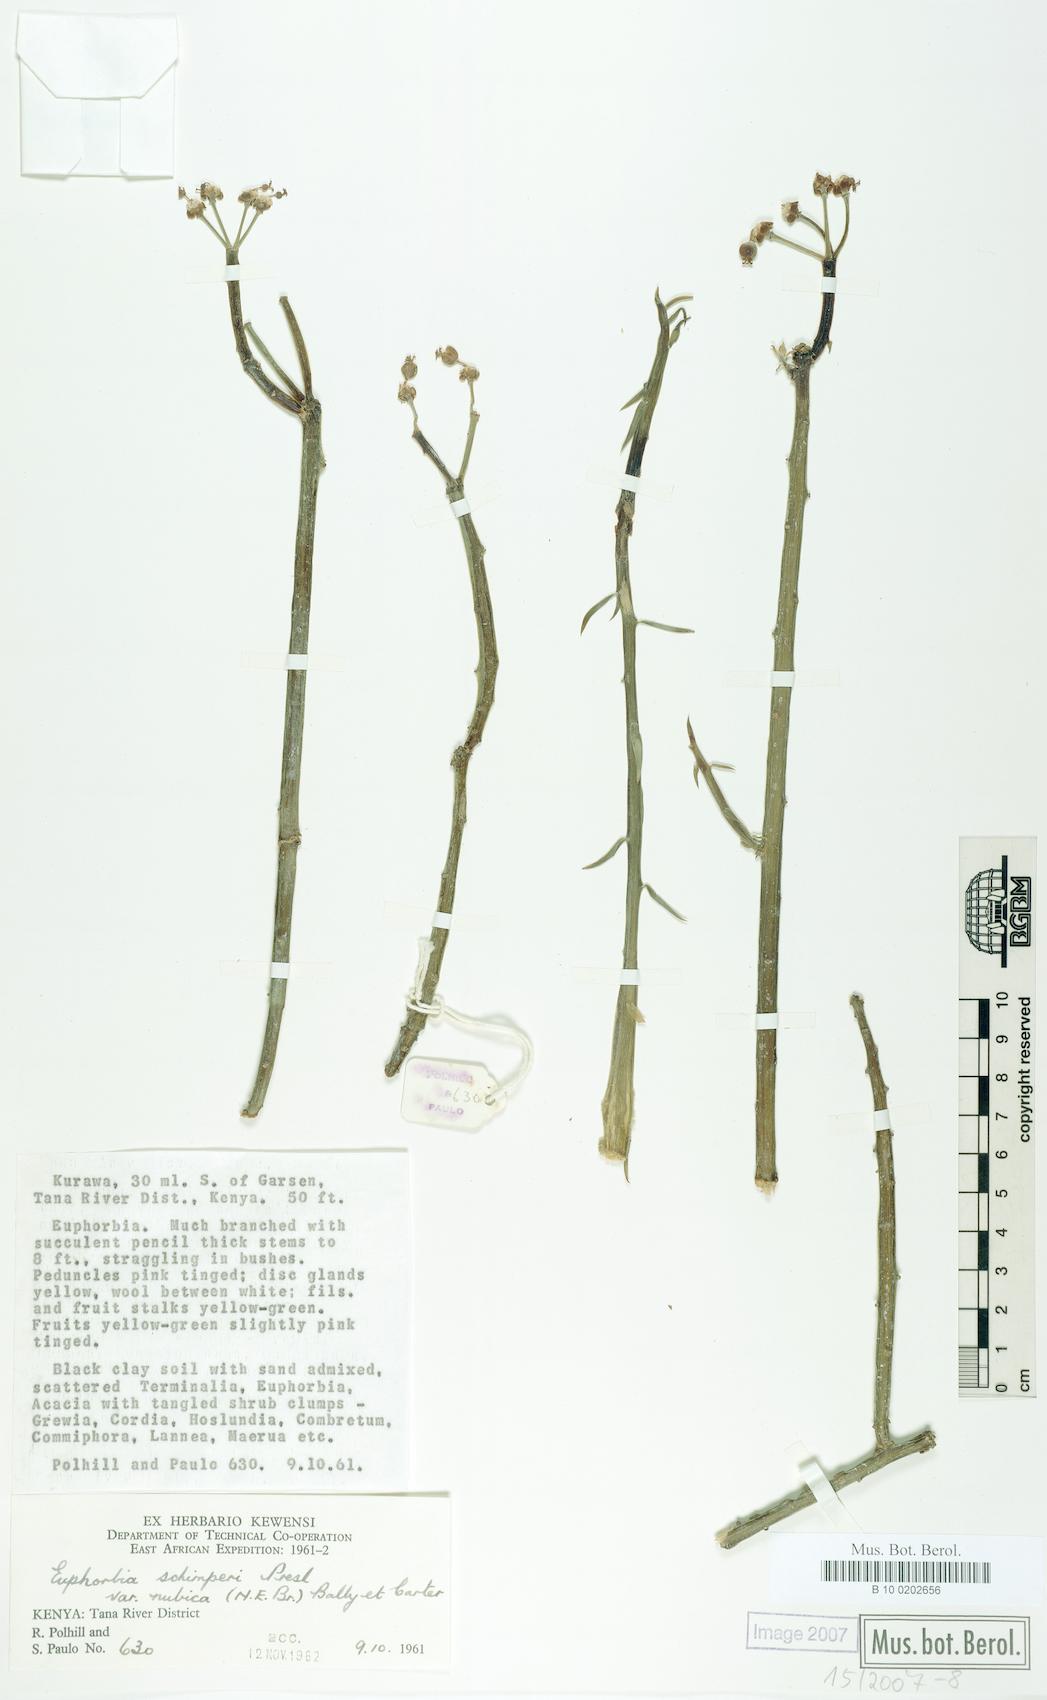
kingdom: Plantae
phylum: Tracheophyta
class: Magnoliopsida
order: Malpighiales
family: Euphorbiaceae
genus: Euphorbia
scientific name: Euphorbia schimperi
